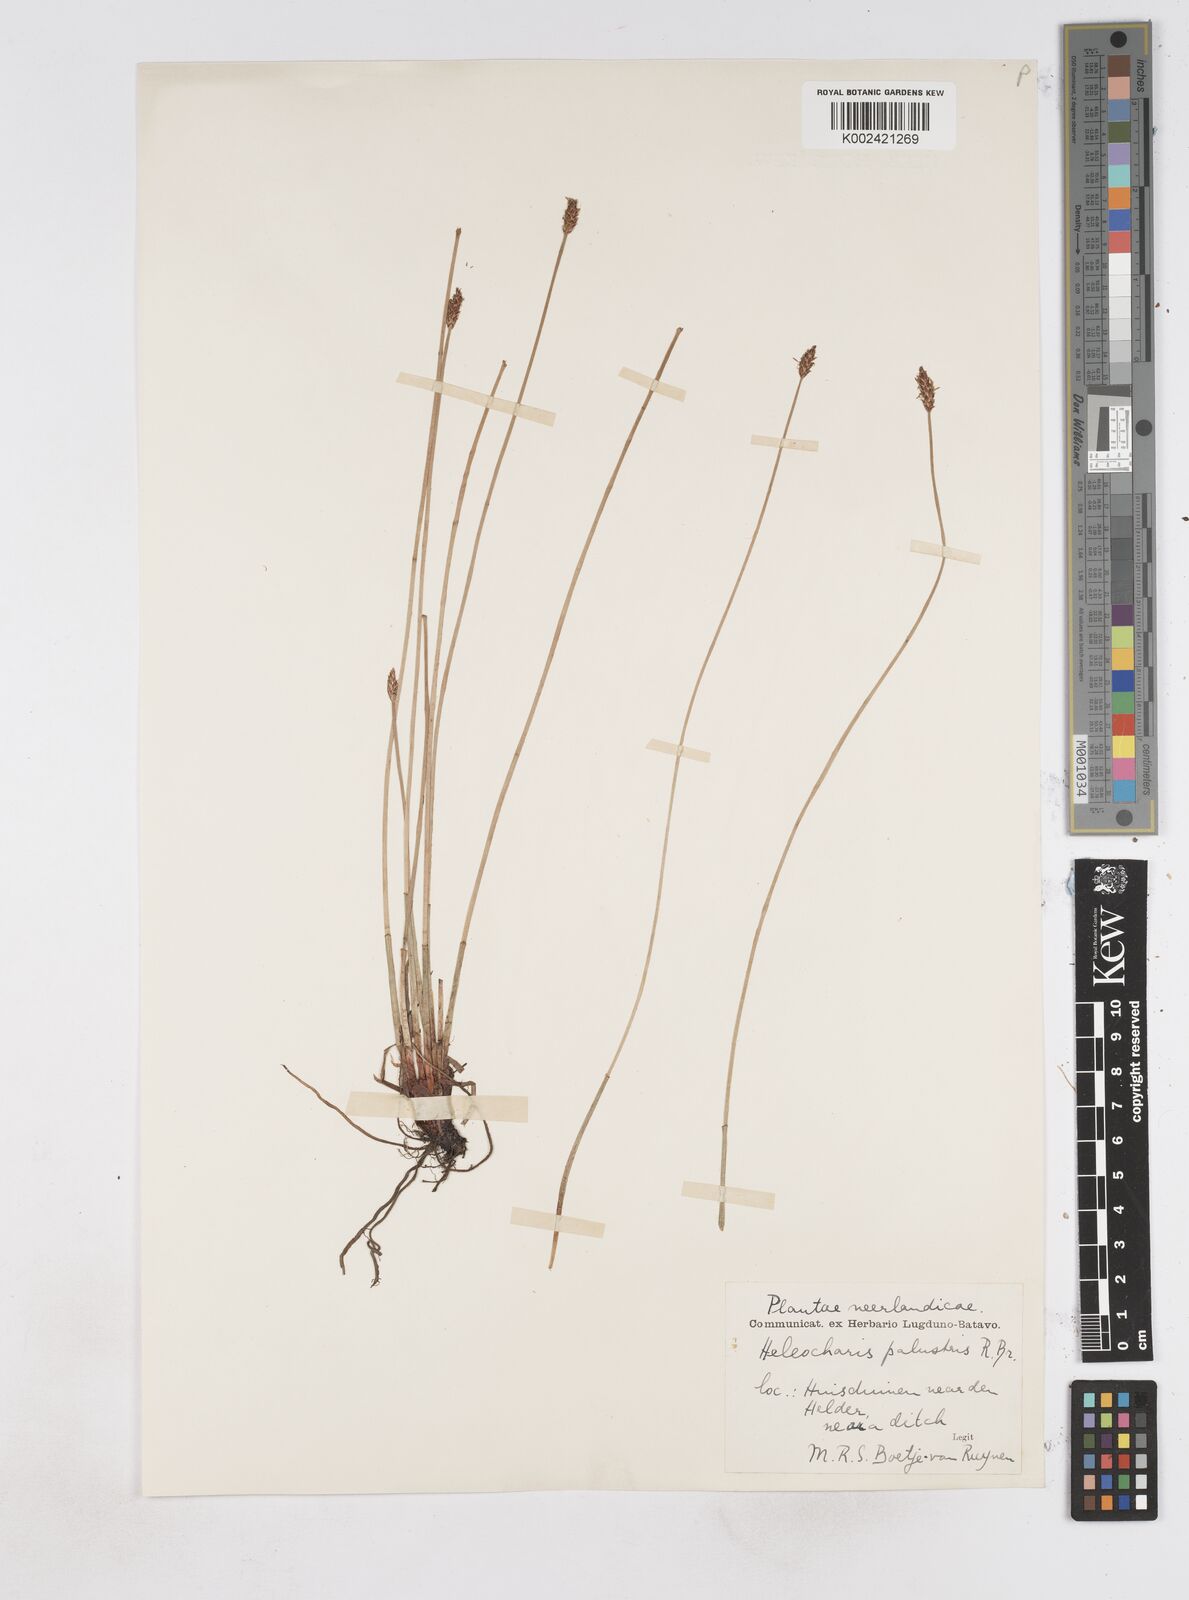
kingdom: Plantae
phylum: Tracheophyta
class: Liliopsida
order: Poales
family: Cyperaceae
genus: Eleocharis
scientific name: Eleocharis palustris
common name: Common spike-rush
